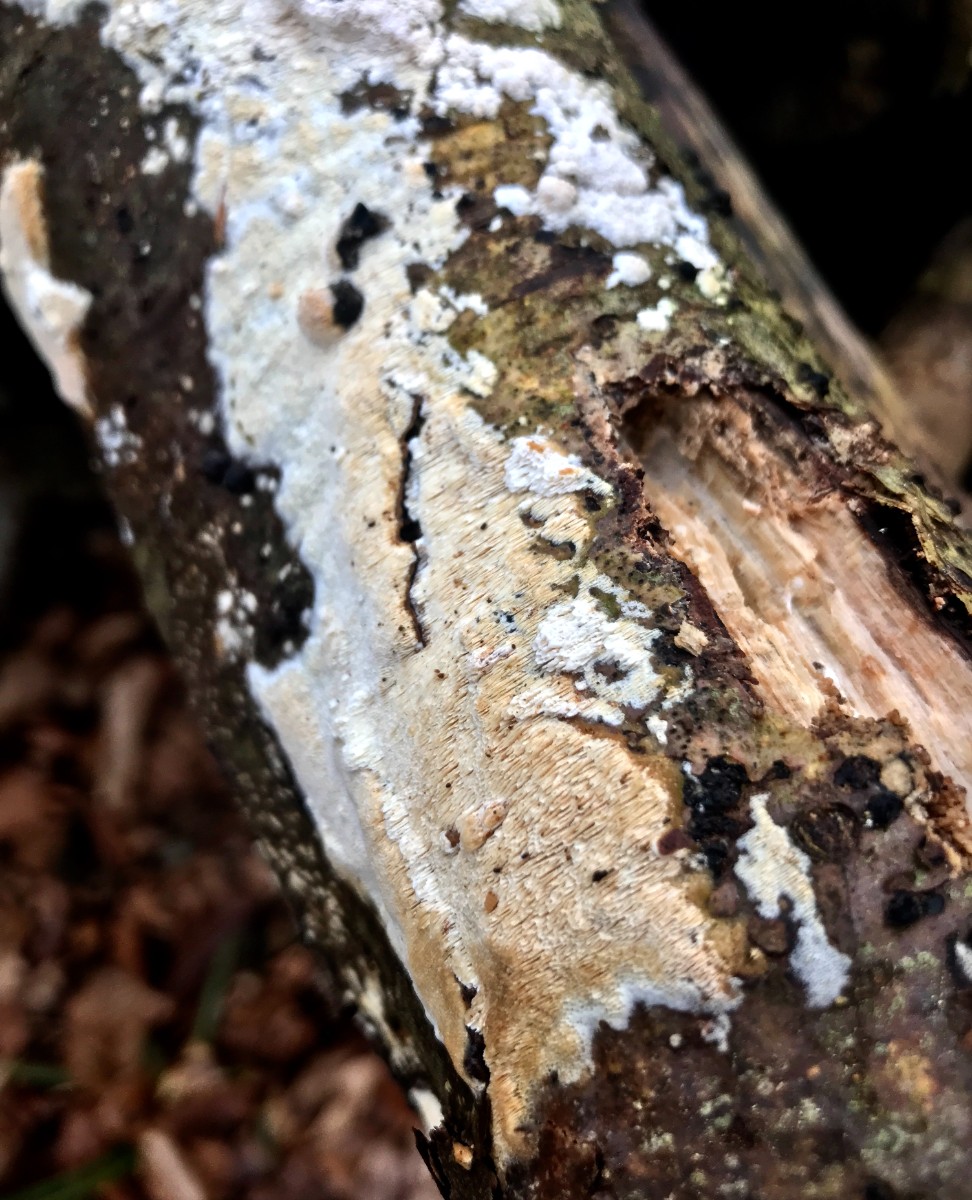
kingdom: Fungi
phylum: Basidiomycota
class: Agaricomycetes
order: Hymenochaetales
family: Schizoporaceae
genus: Xylodon
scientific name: Xylodon
